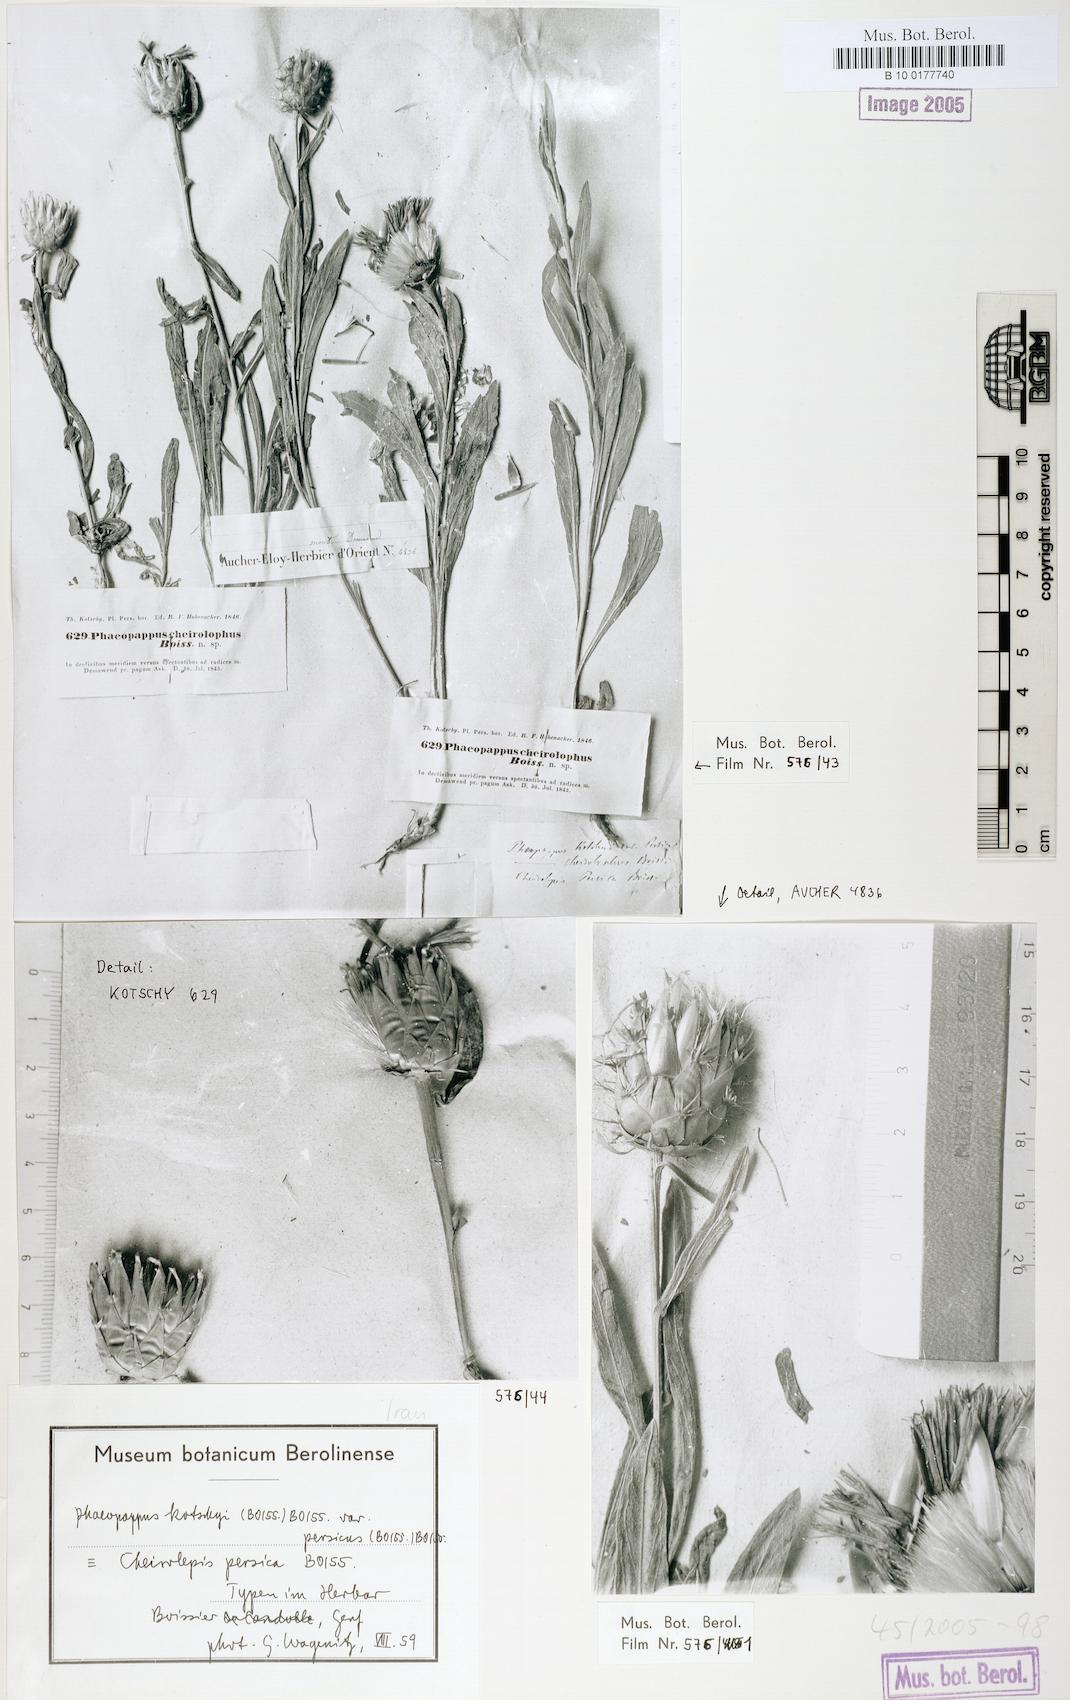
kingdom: Plantae
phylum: Tracheophyta
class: Magnoliopsida
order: Asterales
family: Asteraceae
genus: Centaurea
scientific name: Centaurea kotschyi
